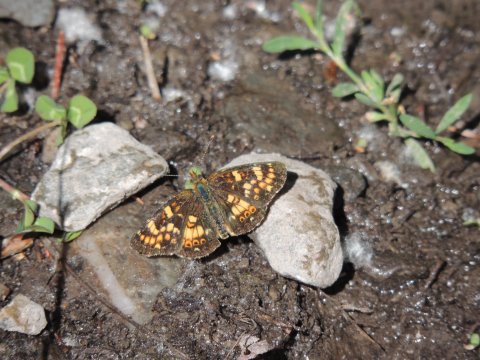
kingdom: Animalia
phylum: Arthropoda
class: Insecta
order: Lepidoptera
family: Nymphalidae
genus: Phyciodes
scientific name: Phyciodes tharos
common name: Field Crescent
